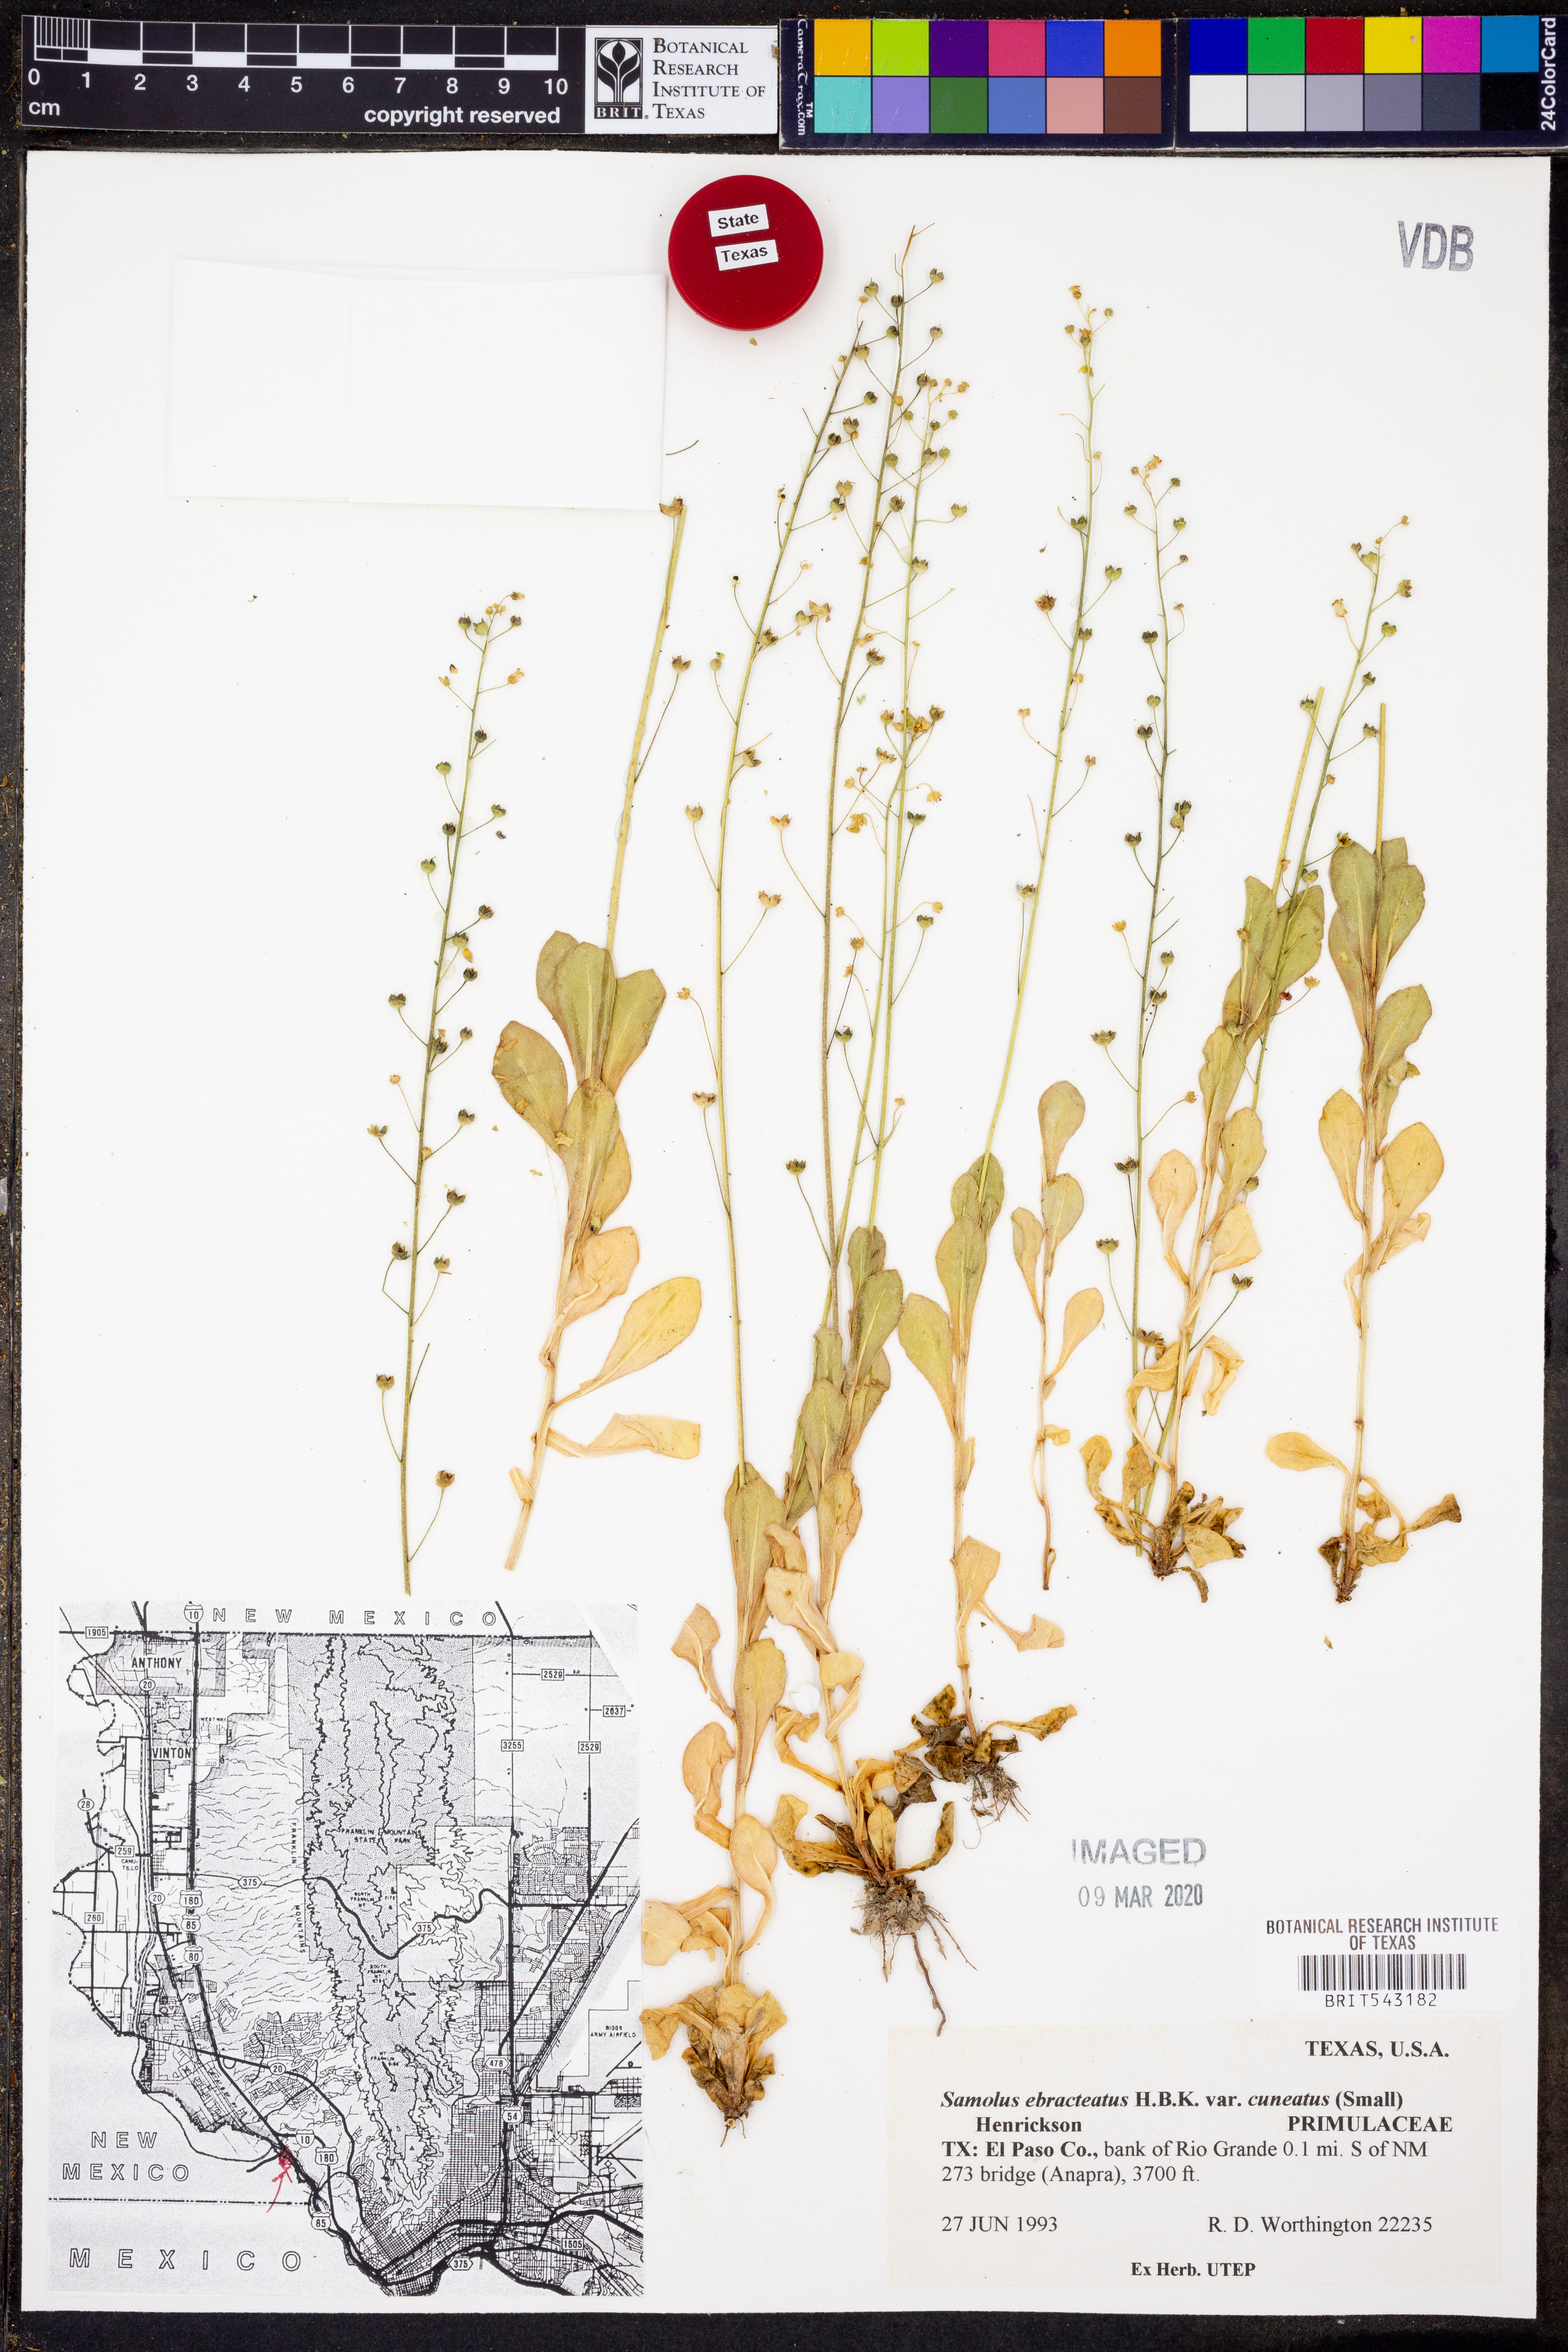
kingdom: Plantae
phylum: Tracheophyta
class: Magnoliopsida
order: Ericales
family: Primulaceae
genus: Samolus
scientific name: Samolus ebracteatus
